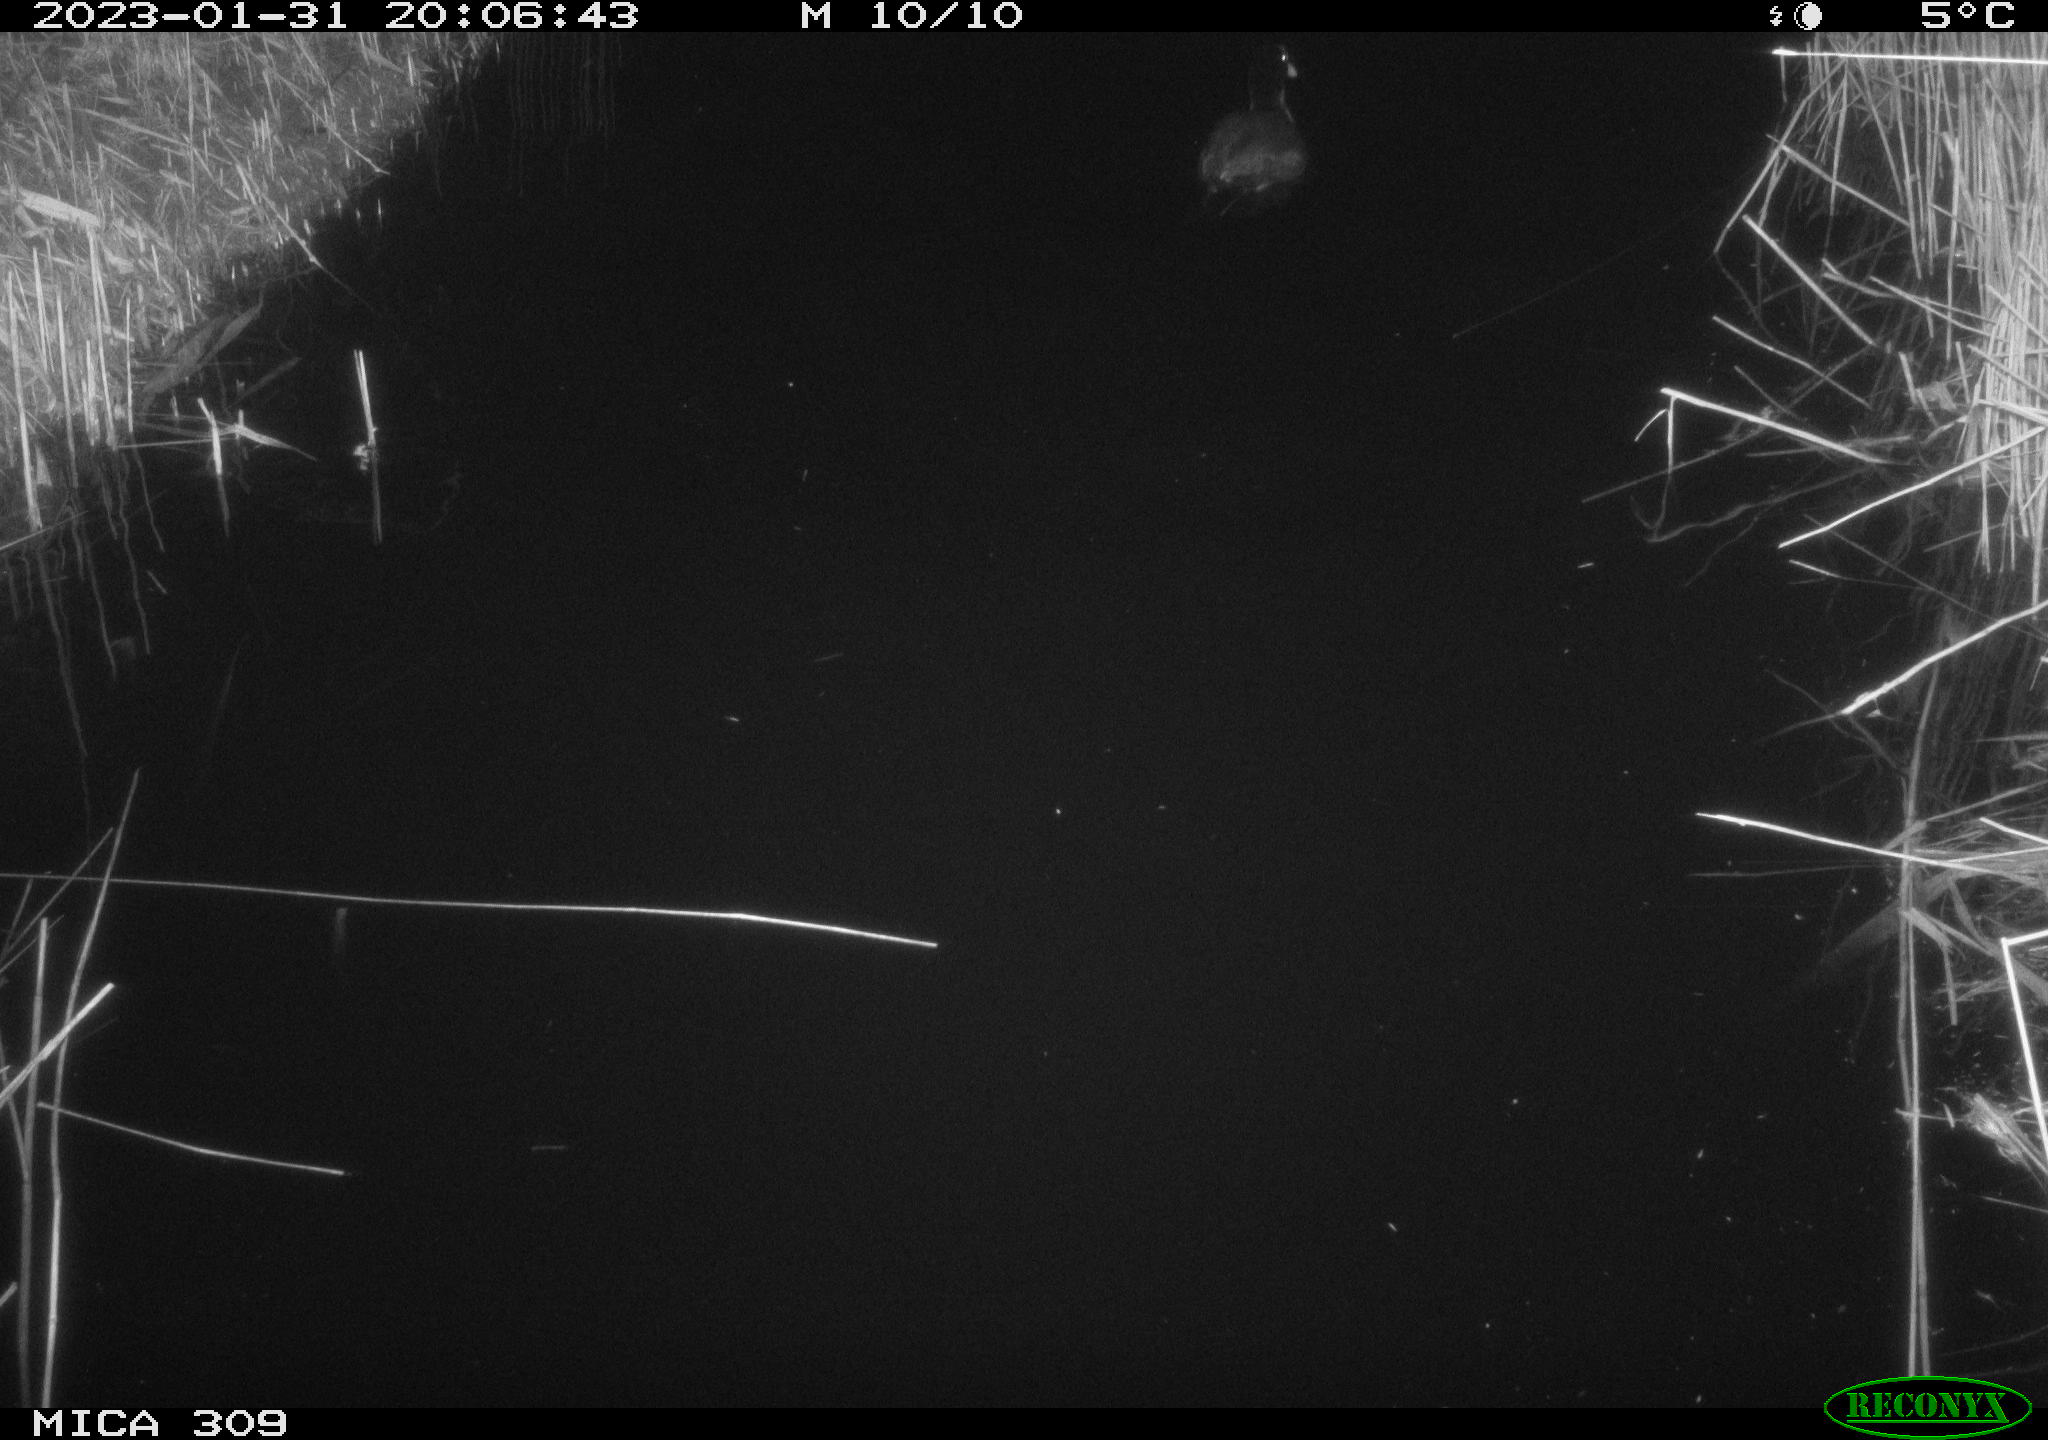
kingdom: Animalia
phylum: Chordata
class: Aves
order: Gruiformes
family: Rallidae
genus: Fulica
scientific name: Fulica atra
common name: Eurasian coot
